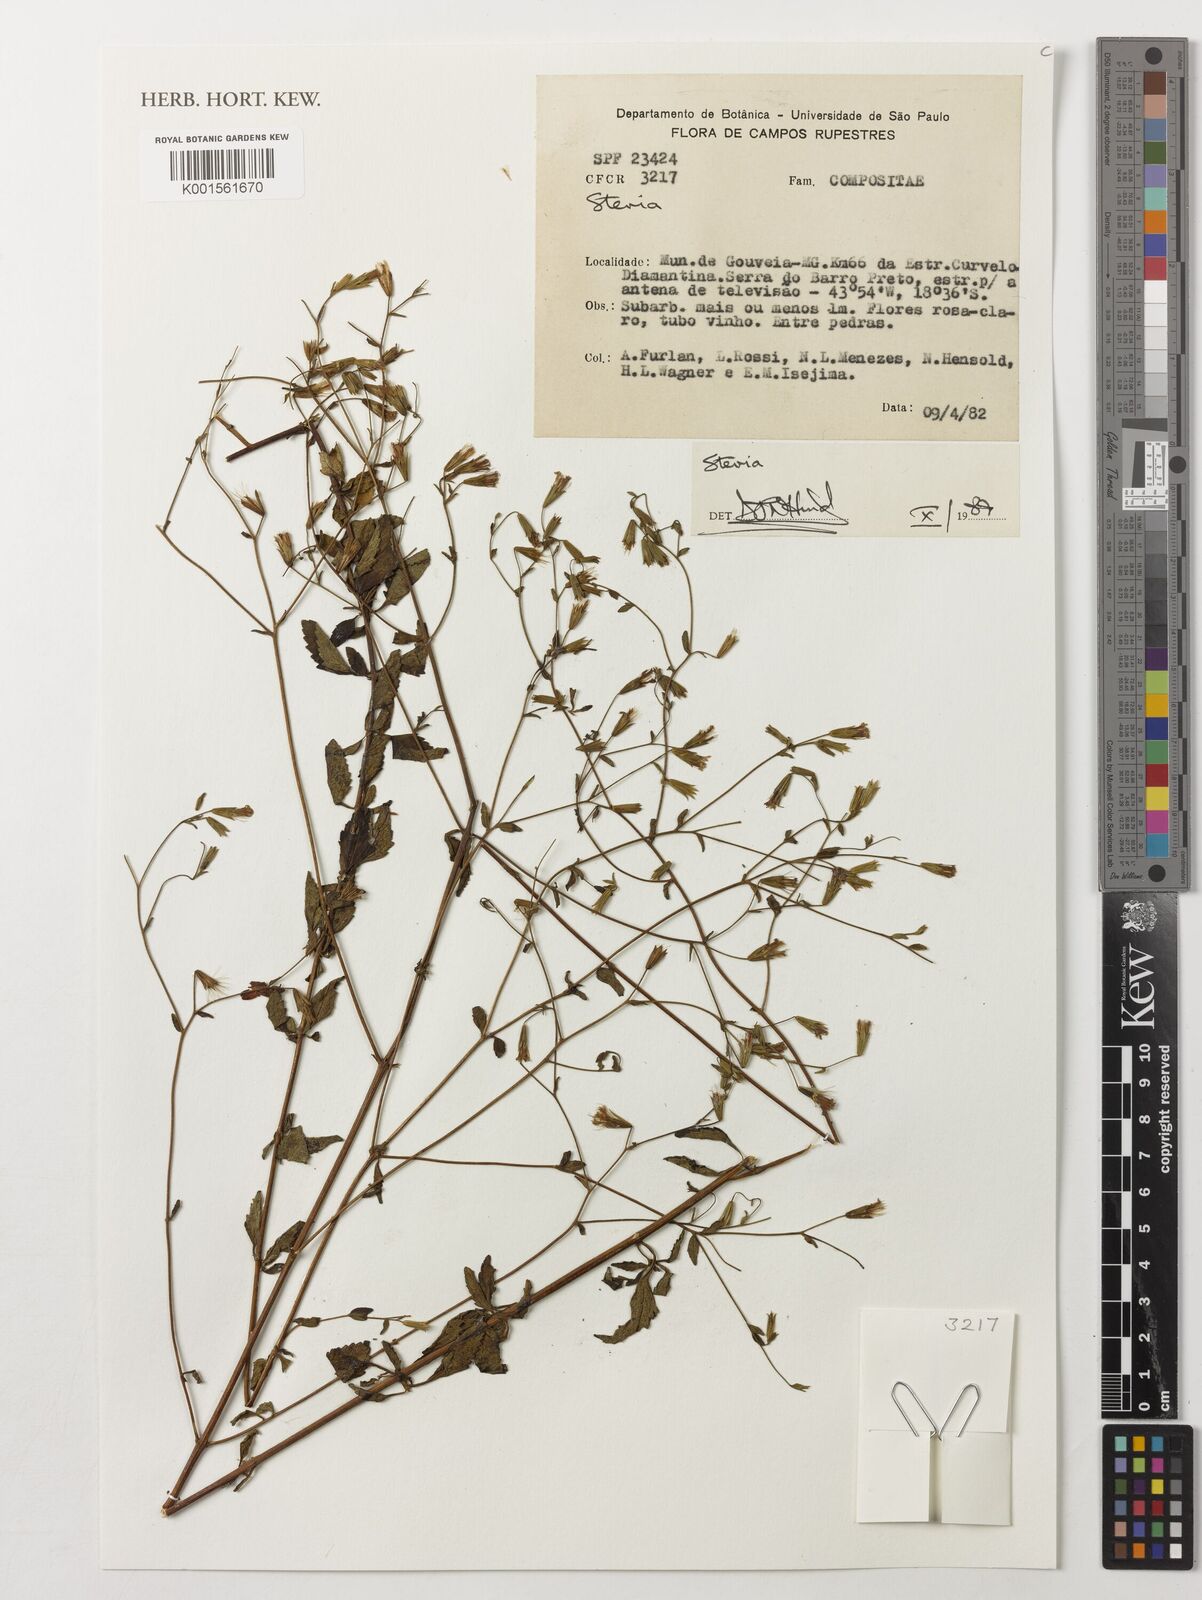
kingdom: Plantae
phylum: Tracheophyta
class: Magnoliopsida
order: Asterales
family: Asteraceae
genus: Stevia
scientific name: Stevia
